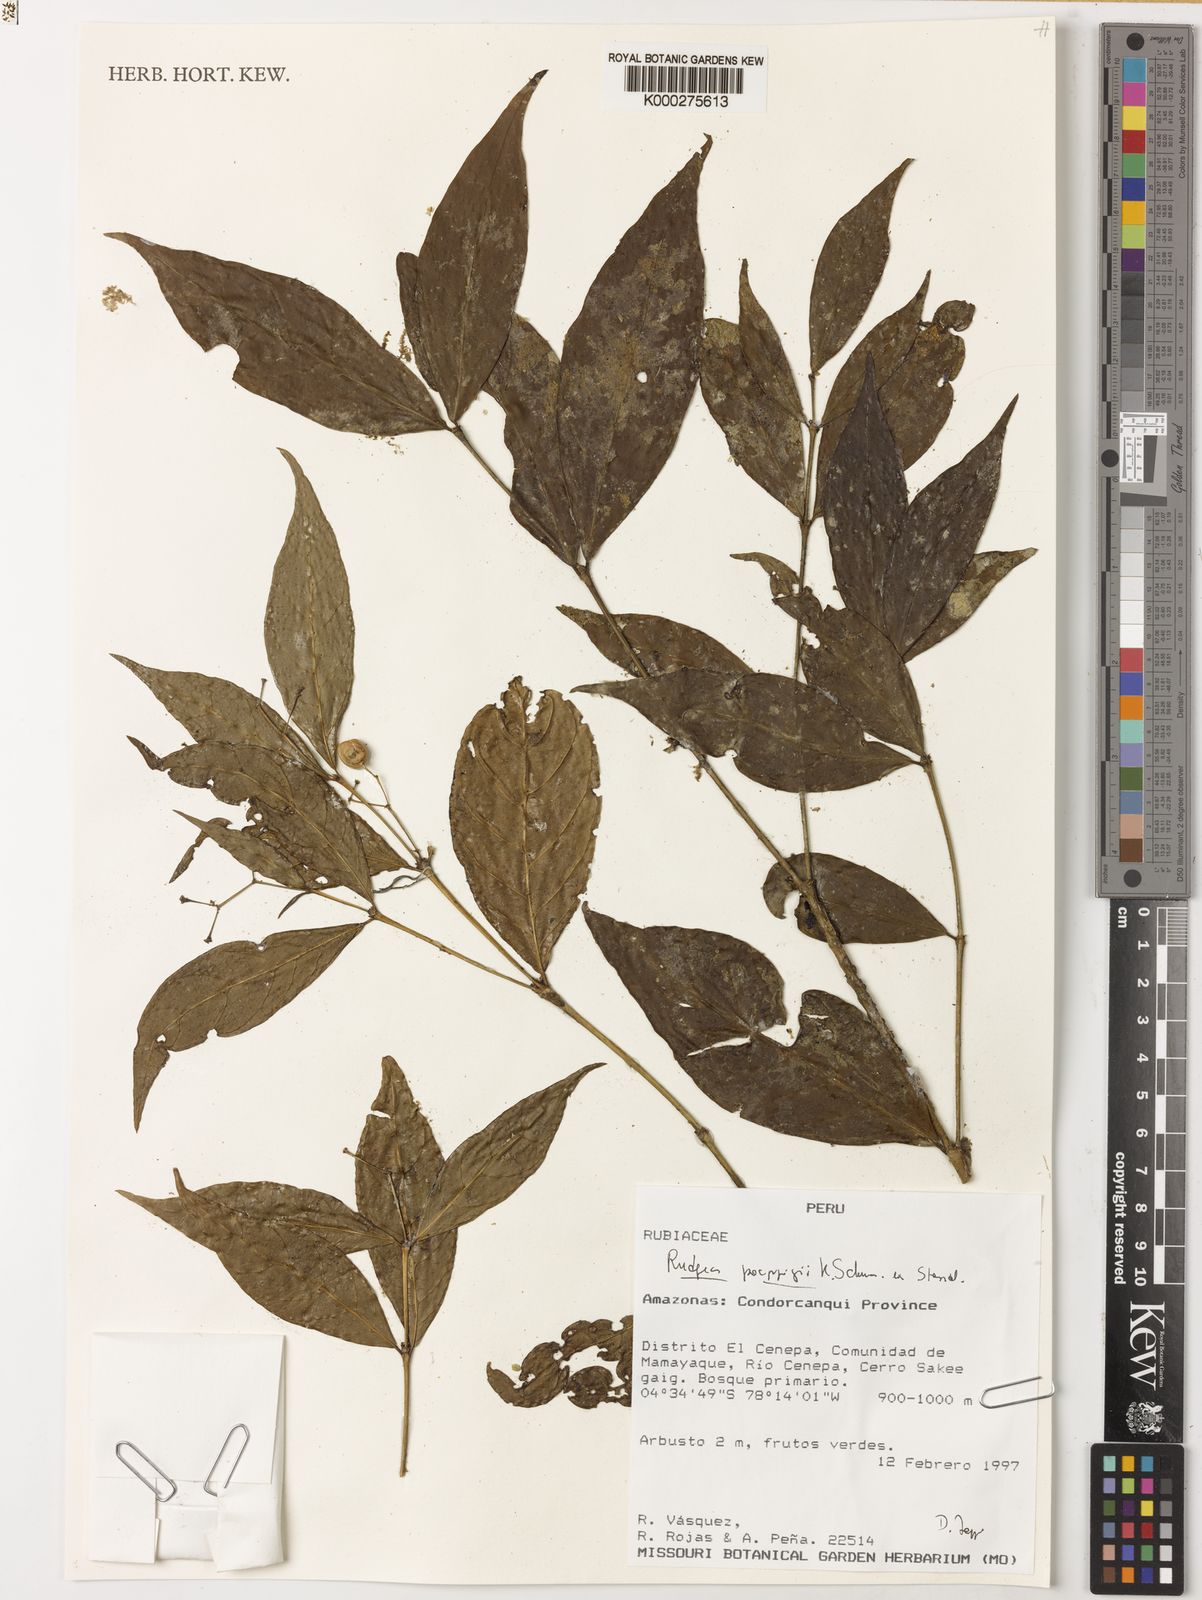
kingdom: Plantae
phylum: Tracheophyta
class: Magnoliopsida
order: Gentianales
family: Rubiaceae
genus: Rudgea
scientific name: Rudgea poeppigii
